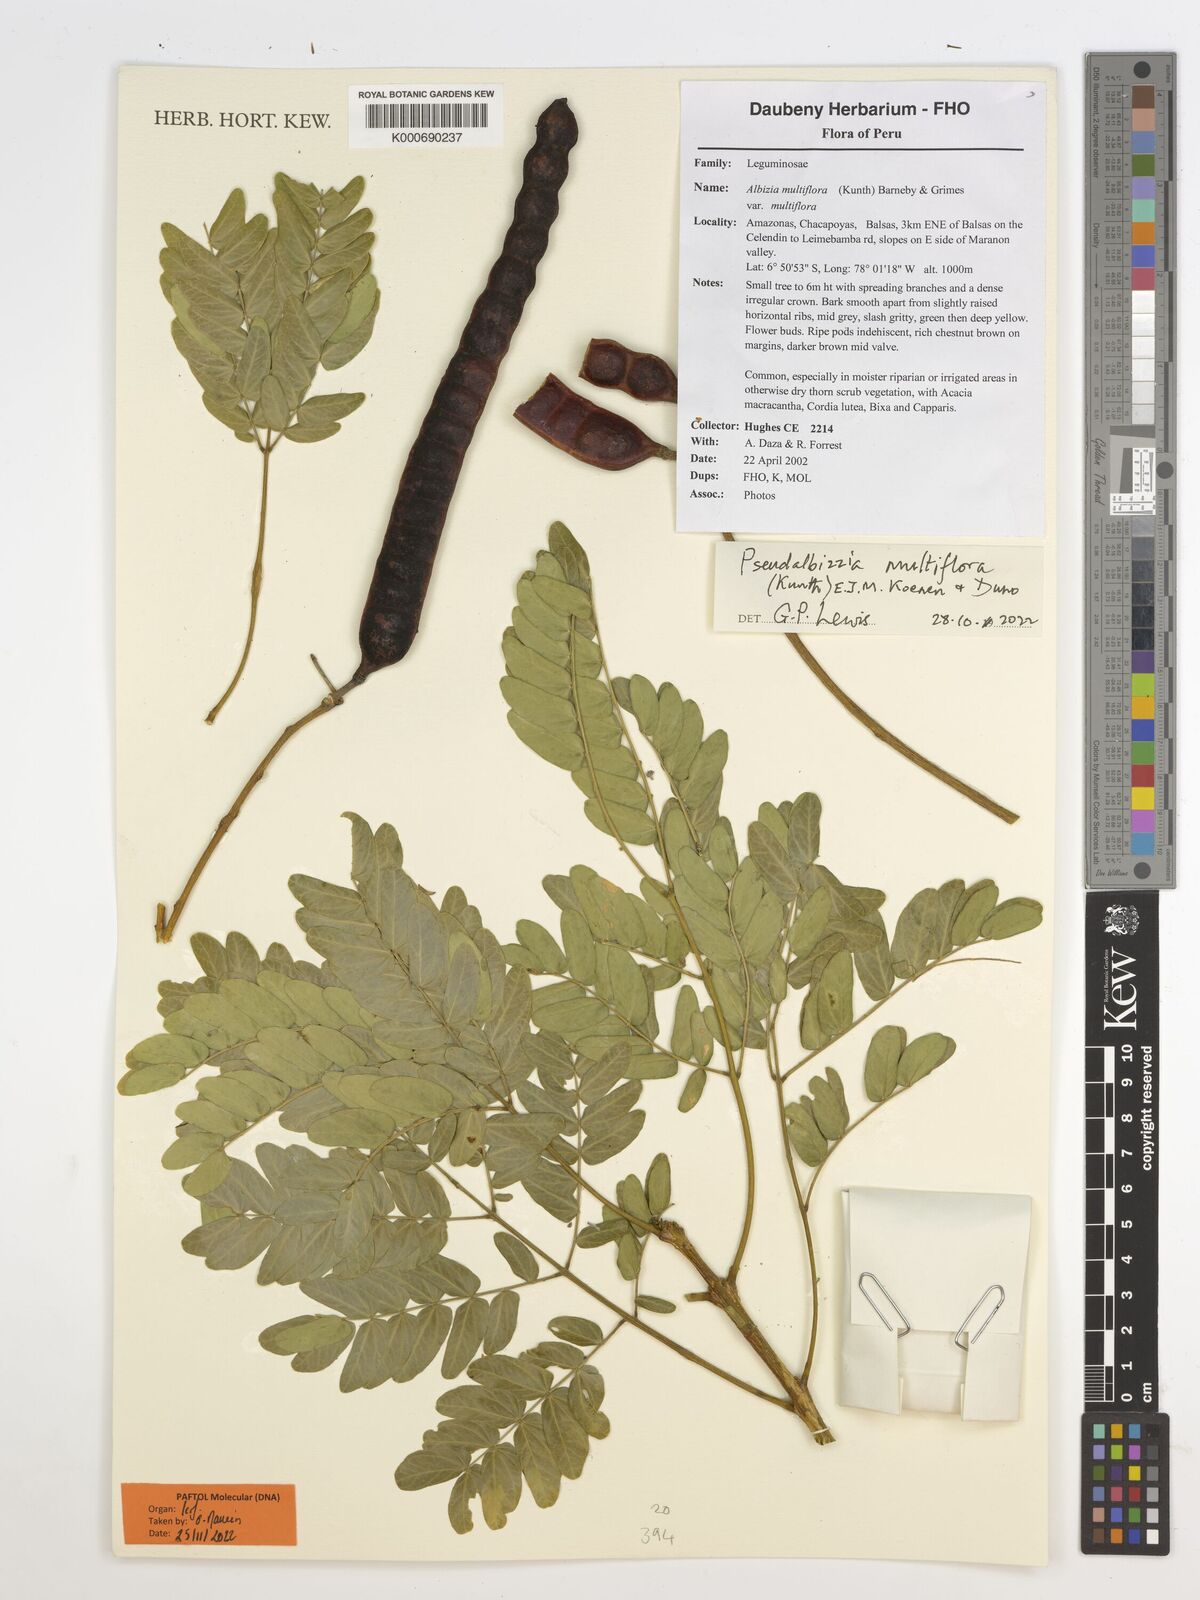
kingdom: Plantae
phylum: Tracheophyta
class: Magnoliopsida
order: Fabales
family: Fabaceae
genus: Albizia
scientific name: Albizia multiflora
